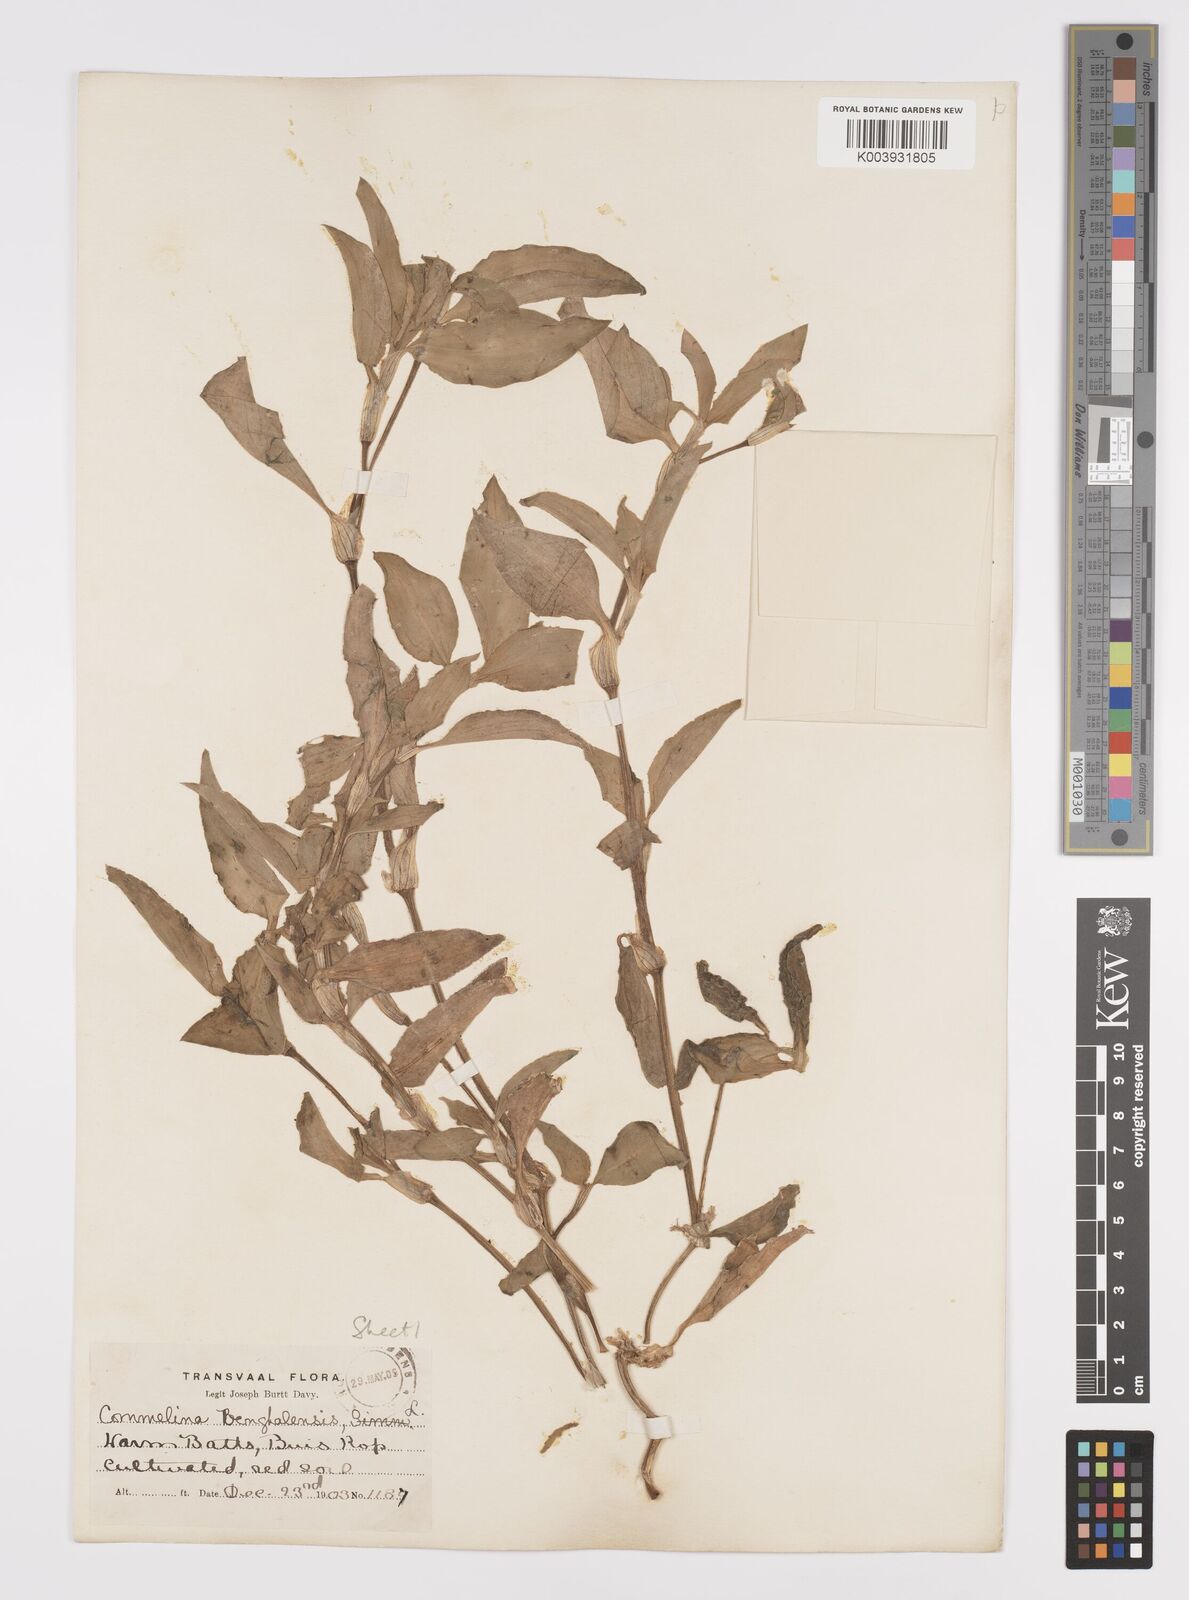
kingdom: Plantae
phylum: Tracheophyta
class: Liliopsida
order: Commelinales
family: Commelinaceae
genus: Commelina
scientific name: Commelina benghalensis
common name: Jio
